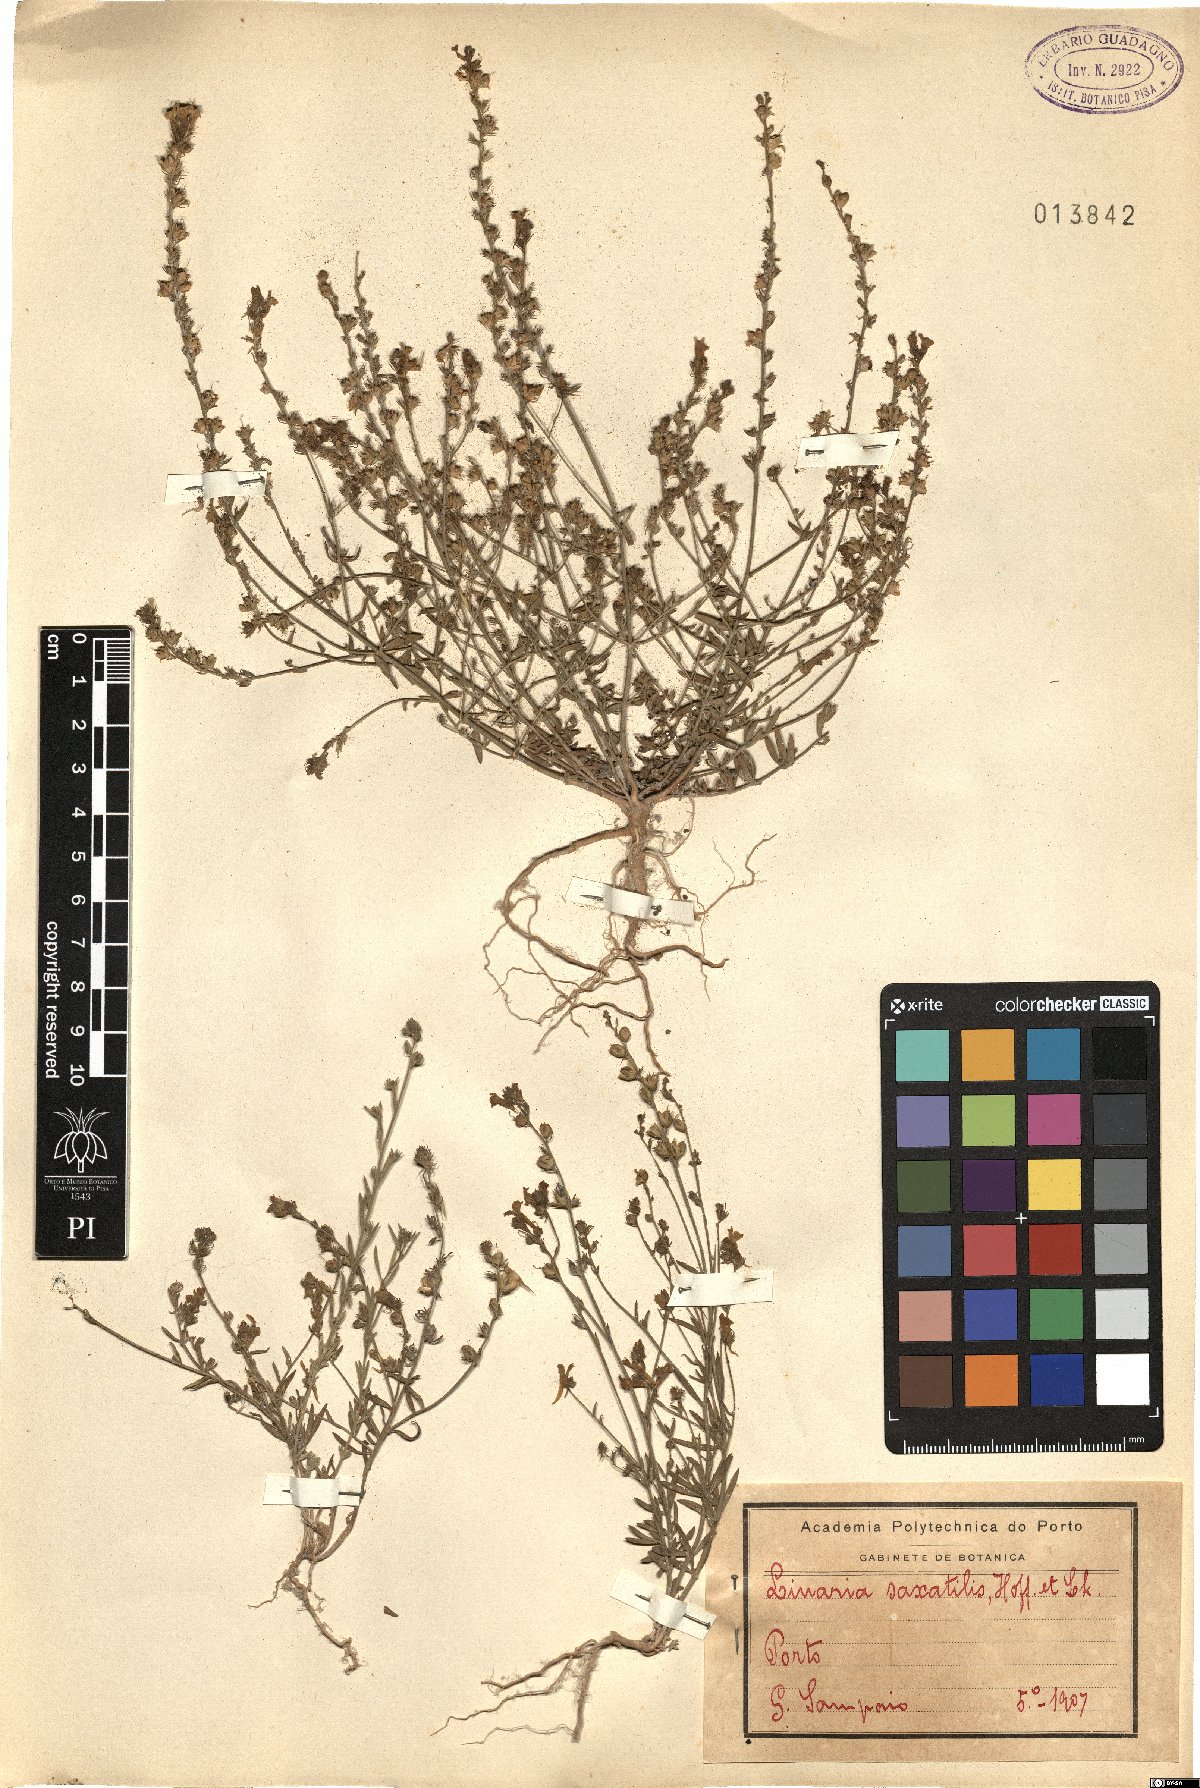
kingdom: Plantae
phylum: Tracheophyta
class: Magnoliopsida
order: Lamiales
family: Plantaginaceae
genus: Linaria
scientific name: Linaria saxatilis
